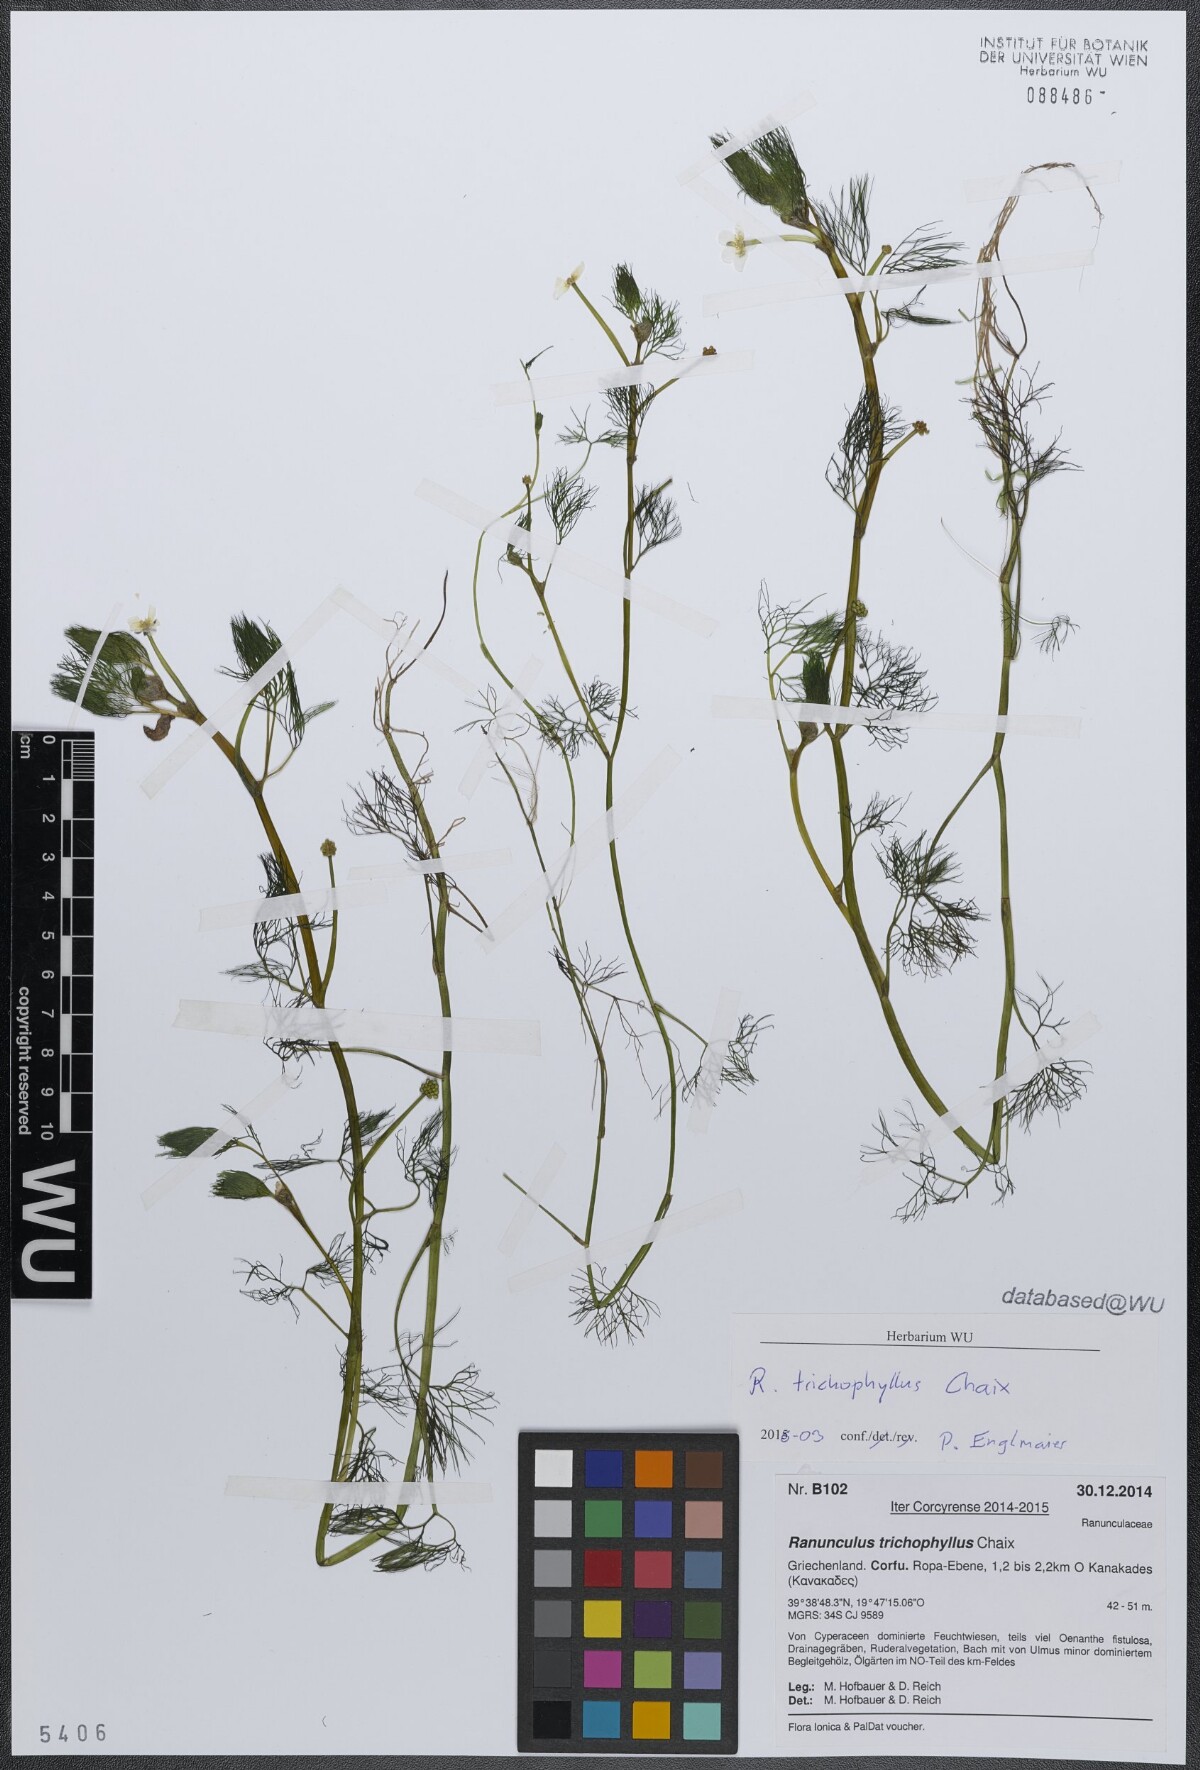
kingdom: Plantae
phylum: Tracheophyta
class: Magnoliopsida
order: Ranunculales
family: Ranunculaceae
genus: Ranunculus
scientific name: Ranunculus trichophyllus
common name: Thread-leaved water-crowfoot
